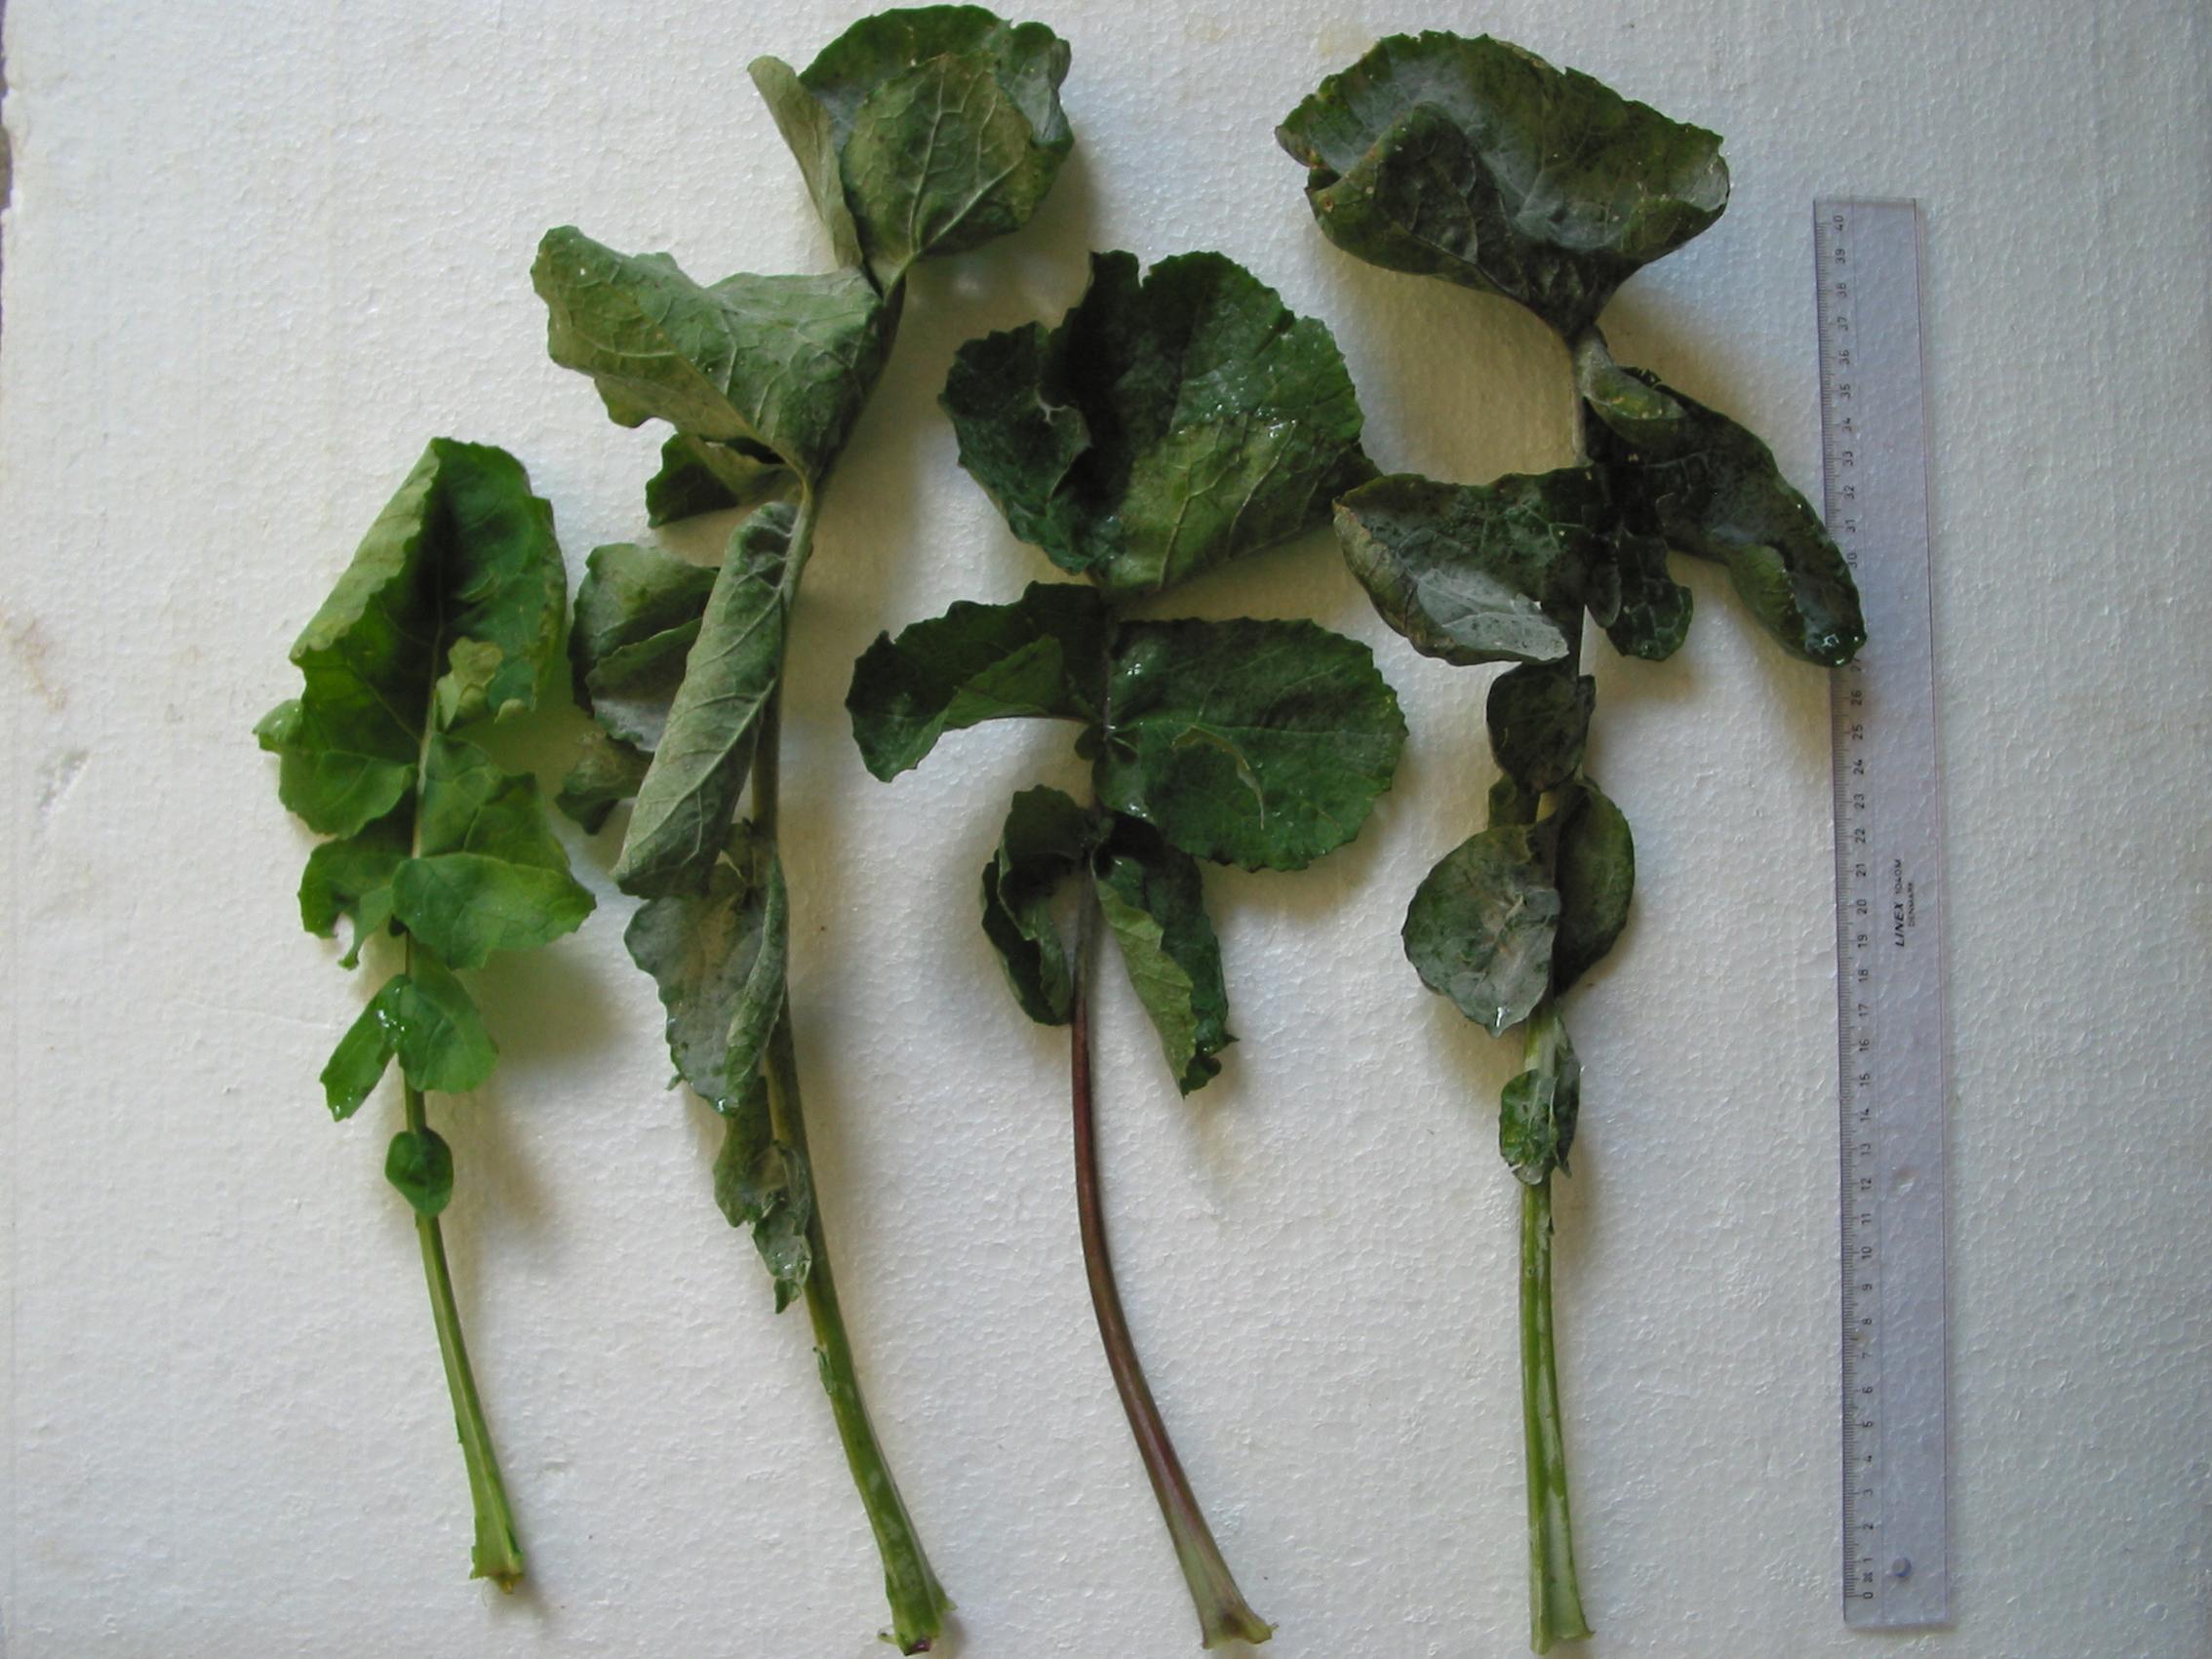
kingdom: Plantae
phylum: Tracheophyta
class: Magnoliopsida
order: Brassicales
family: Brassicaceae
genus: Brassica
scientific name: Brassica napus
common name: Rape
